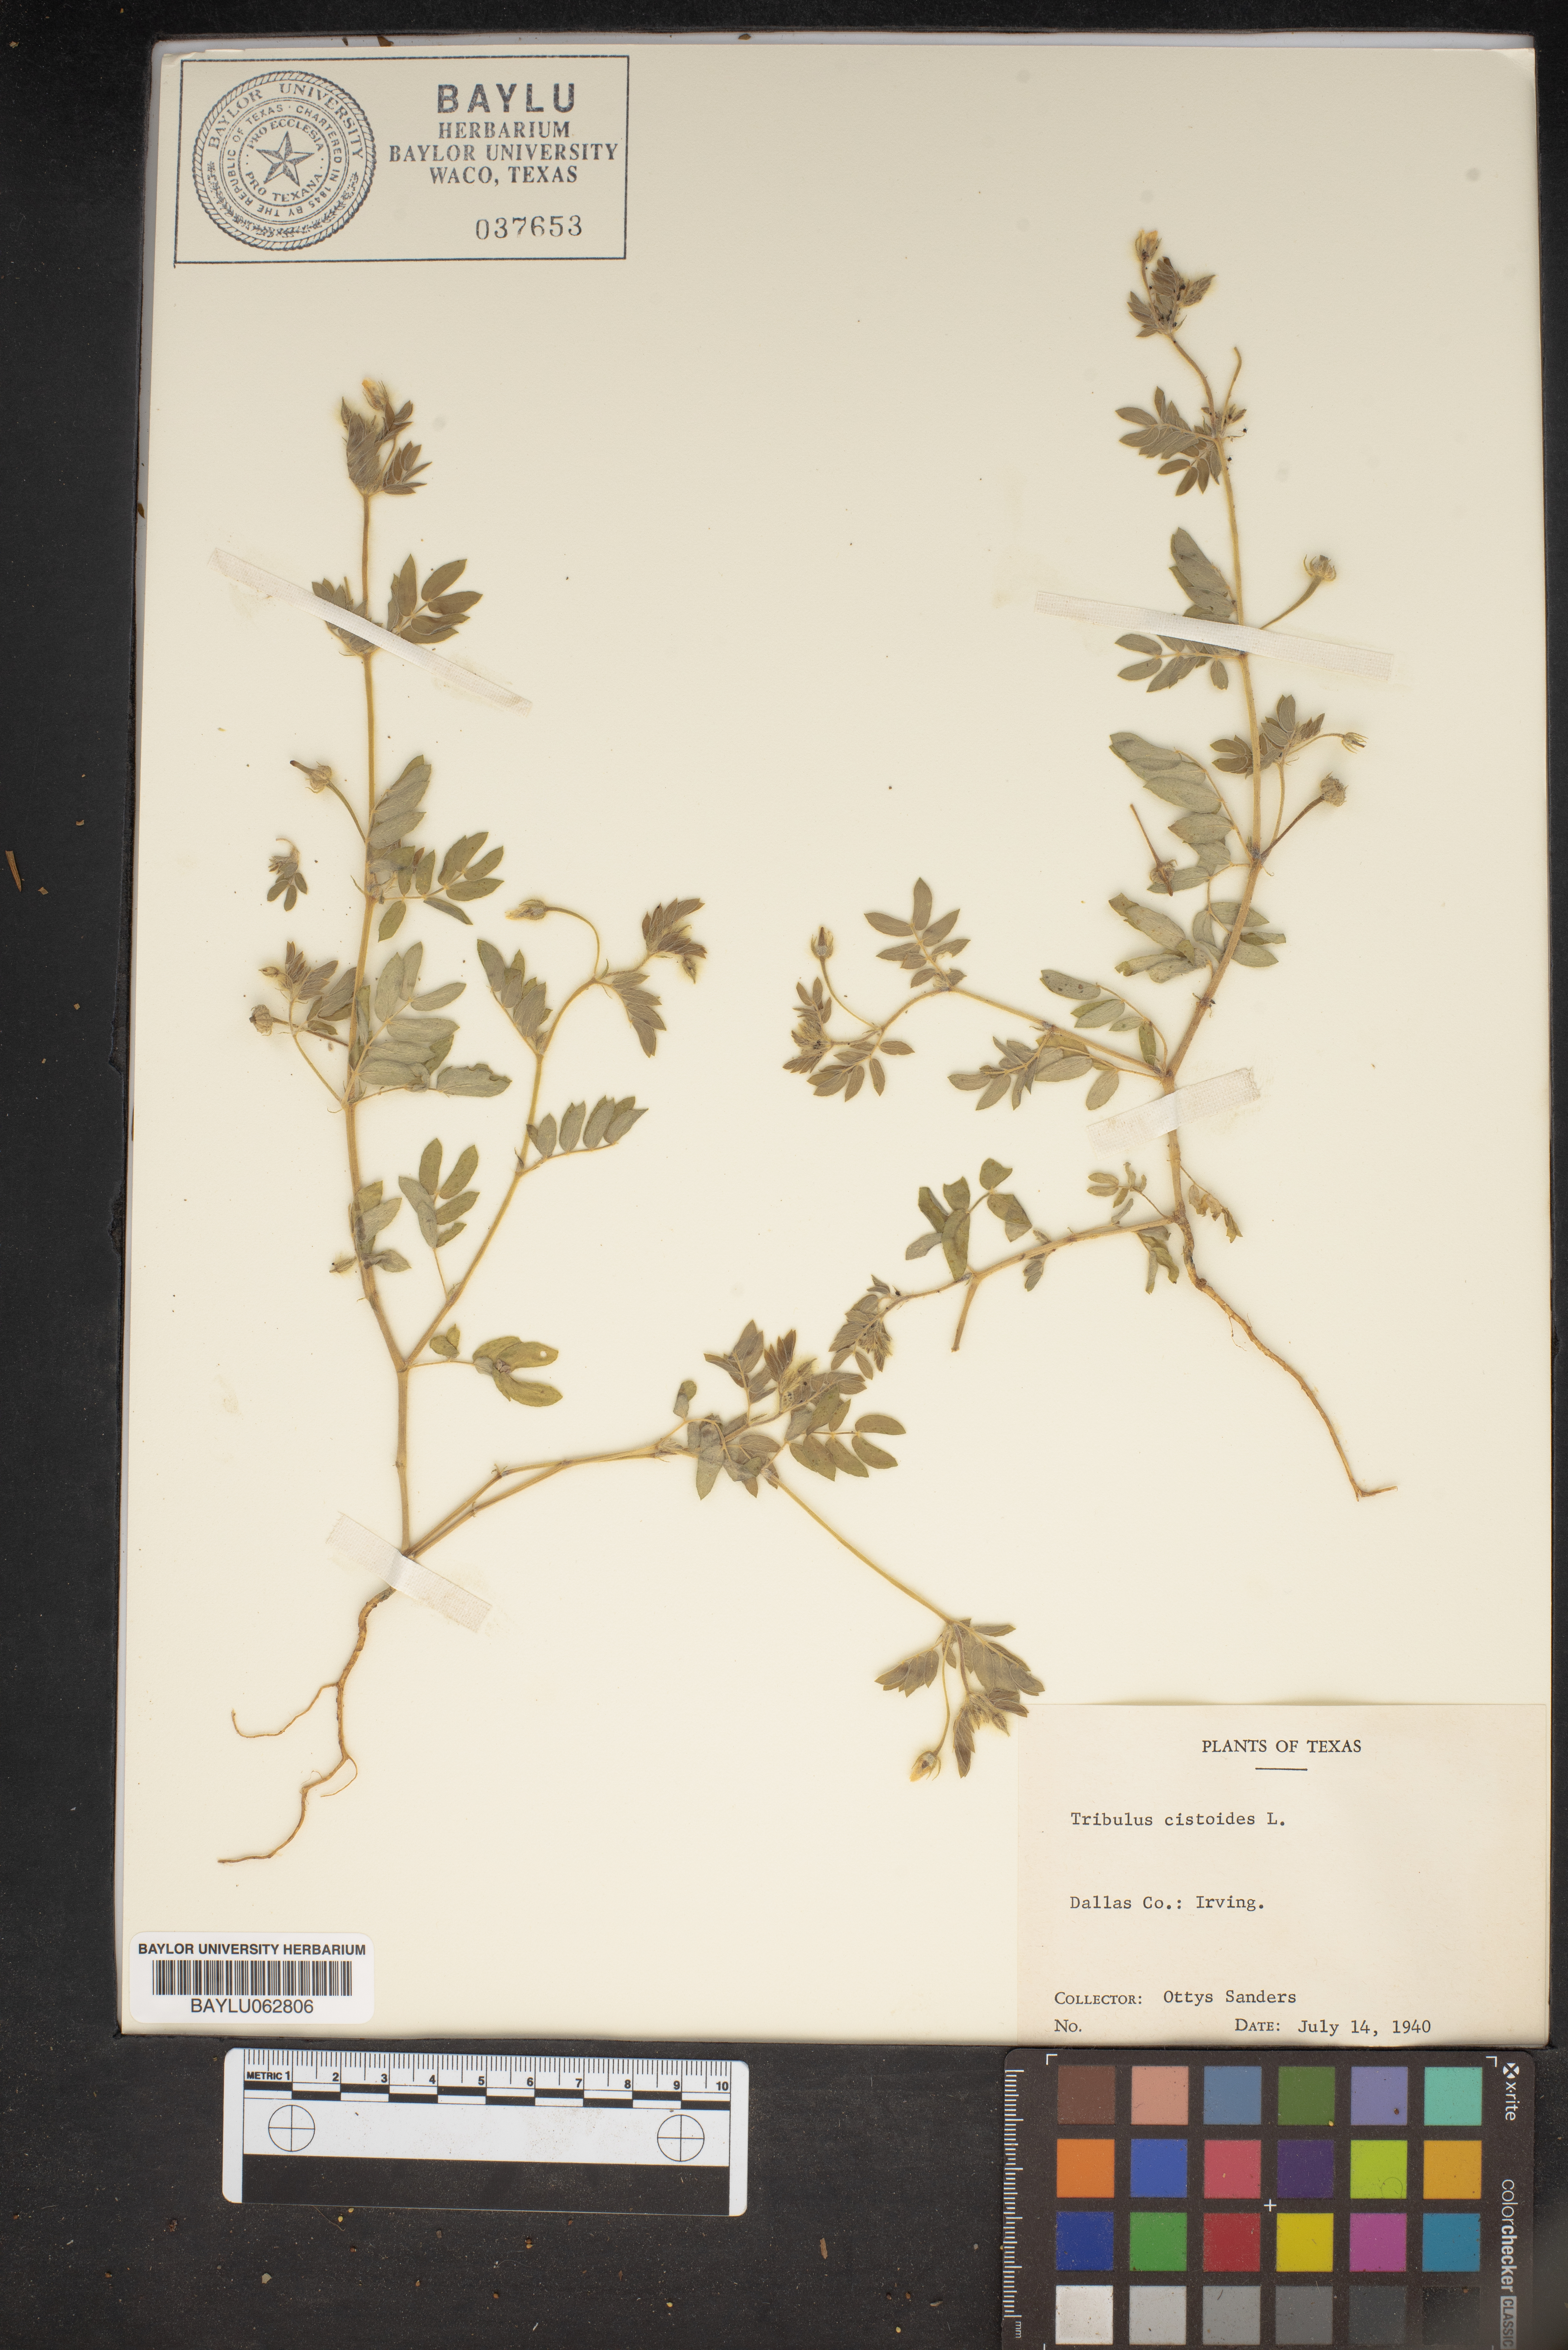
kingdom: Plantae
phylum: Tracheophyta
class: Magnoliopsida
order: Zygophyllales
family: Zygophyllaceae
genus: Tribulus
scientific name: Tribulus cistoides
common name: Jamaican feverplant
